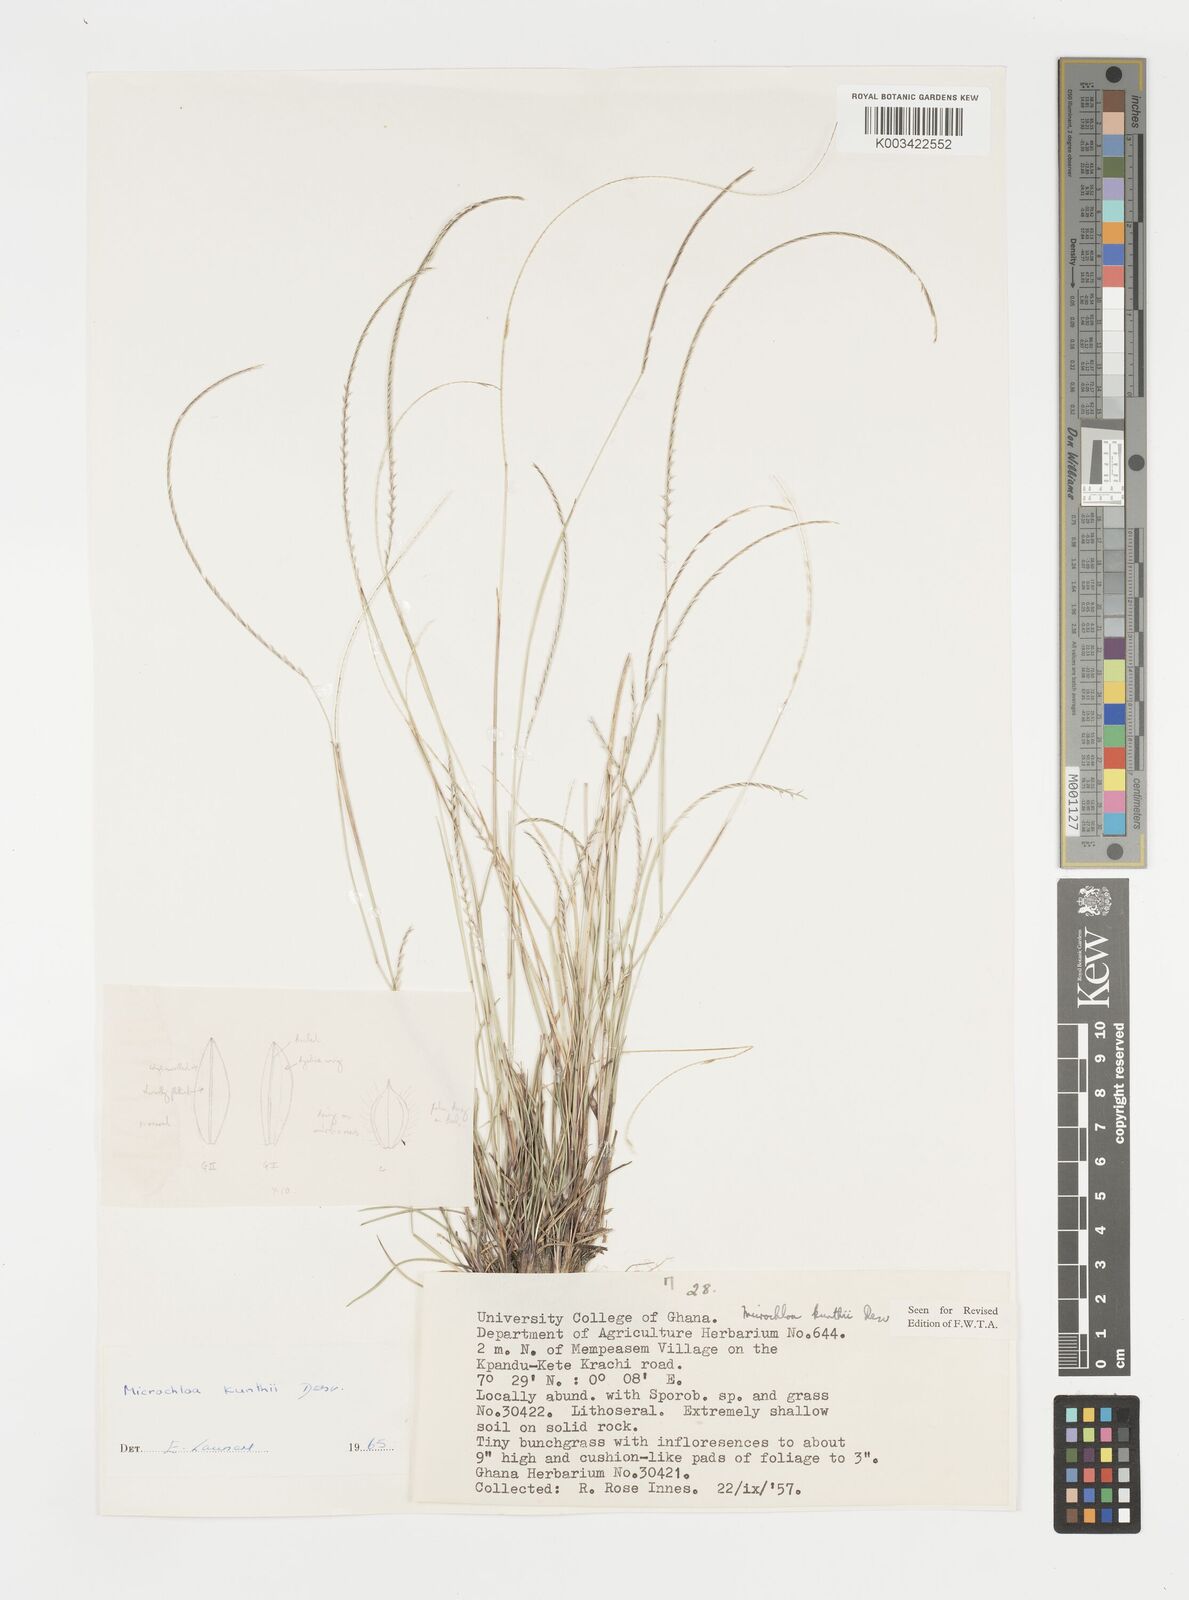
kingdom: Plantae
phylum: Tracheophyta
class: Liliopsida
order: Poales
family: Poaceae
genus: Microchloa
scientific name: Microchloa kunthii
